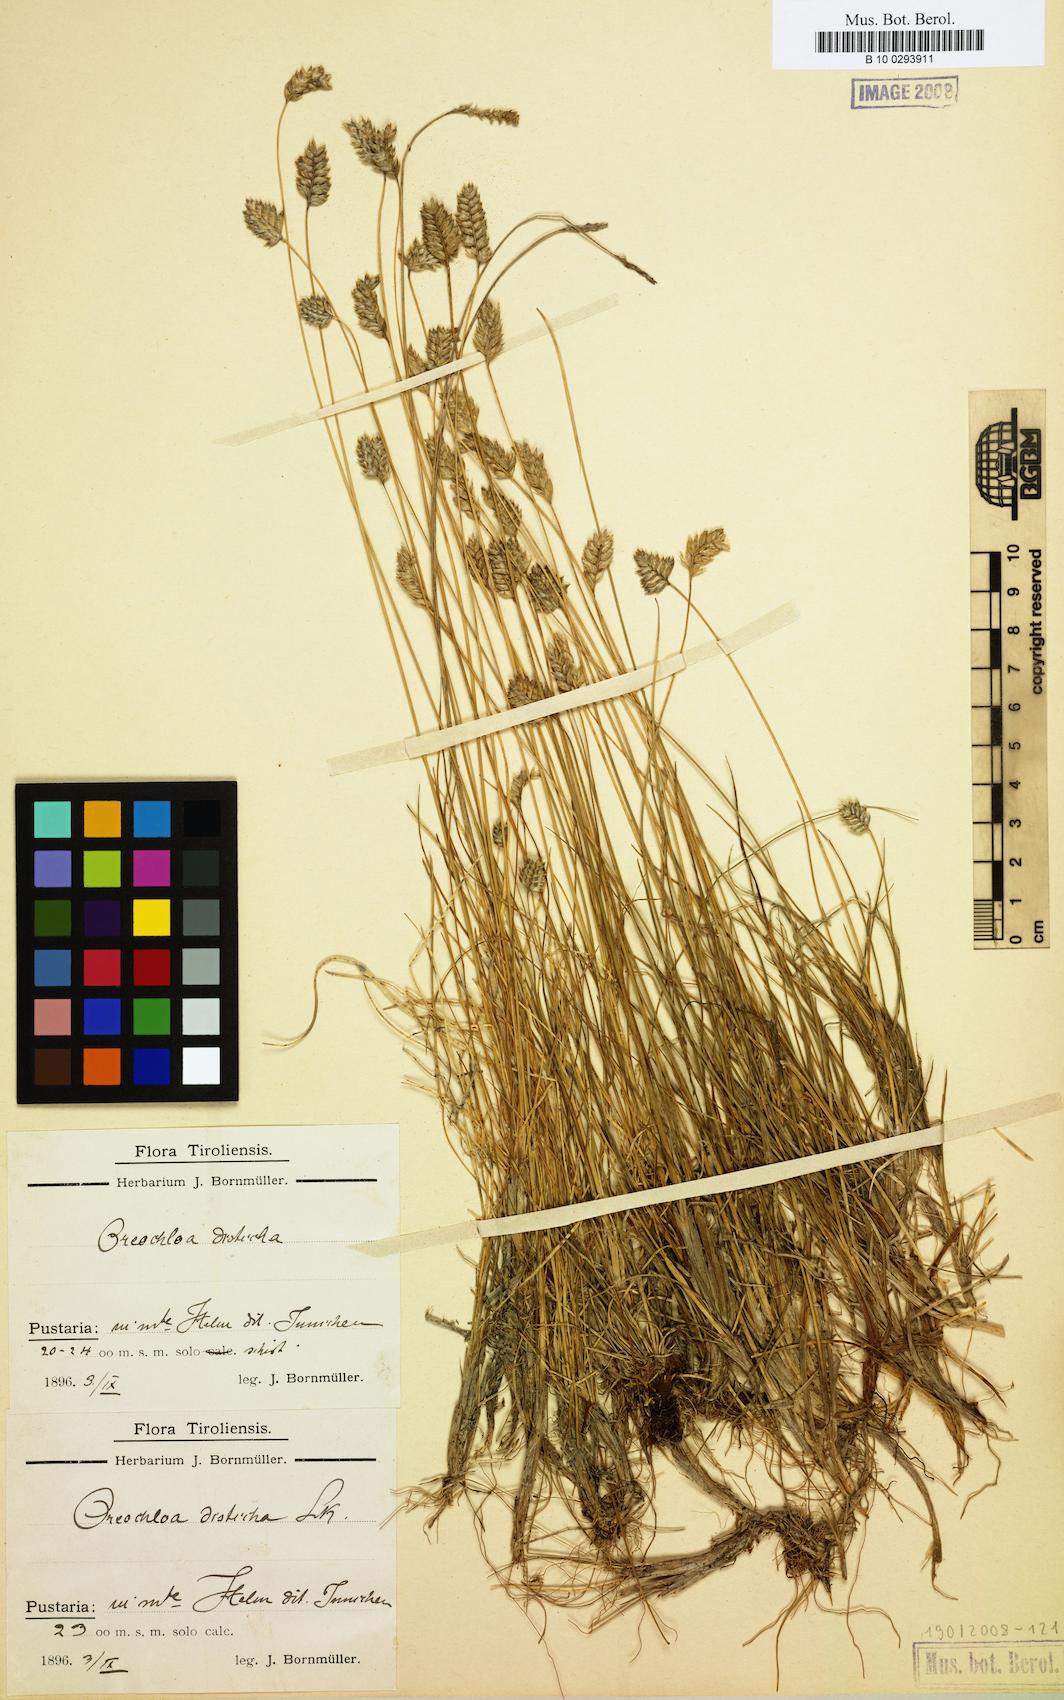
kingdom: Plantae
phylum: Tracheophyta
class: Liliopsida
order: Poales
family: Poaceae
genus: Oreochloa
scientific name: Oreochloa disticha
